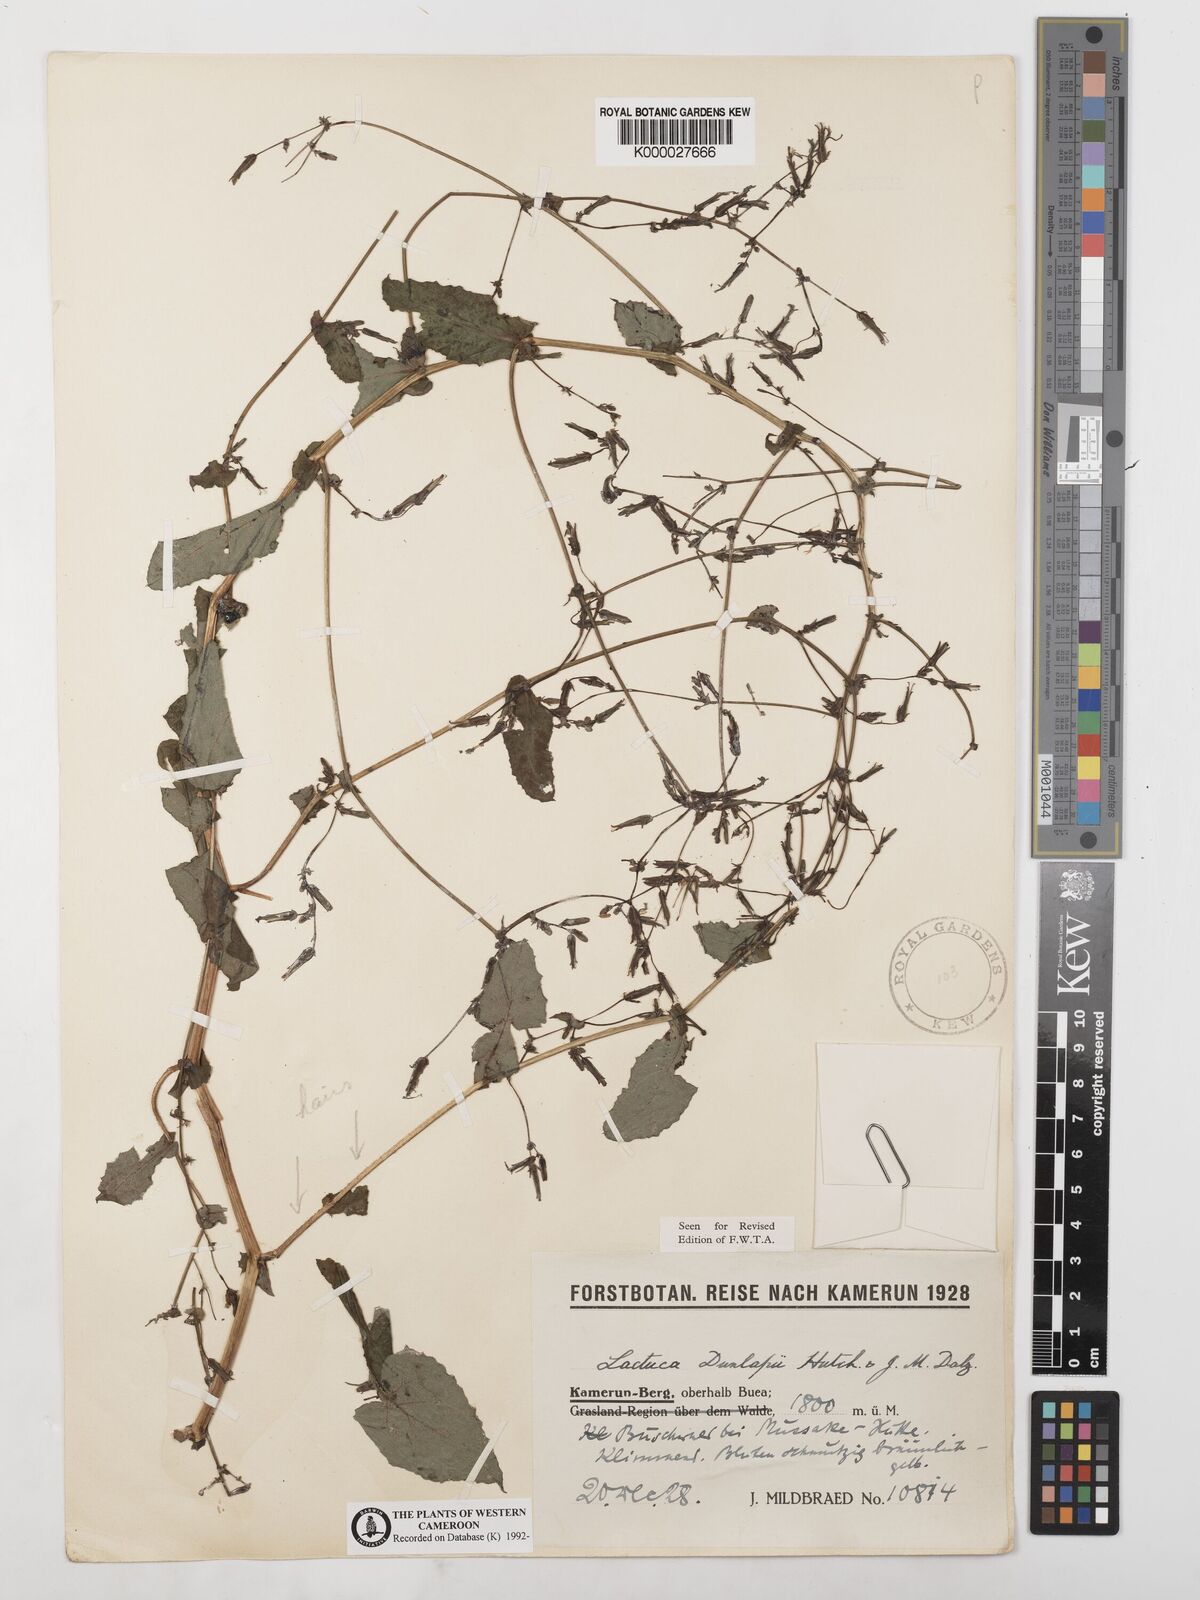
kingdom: Plantae
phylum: Tracheophyta
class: Magnoliopsida
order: Asterales
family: Asteraceae
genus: Lactuca
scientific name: Lactuca glandulifera
